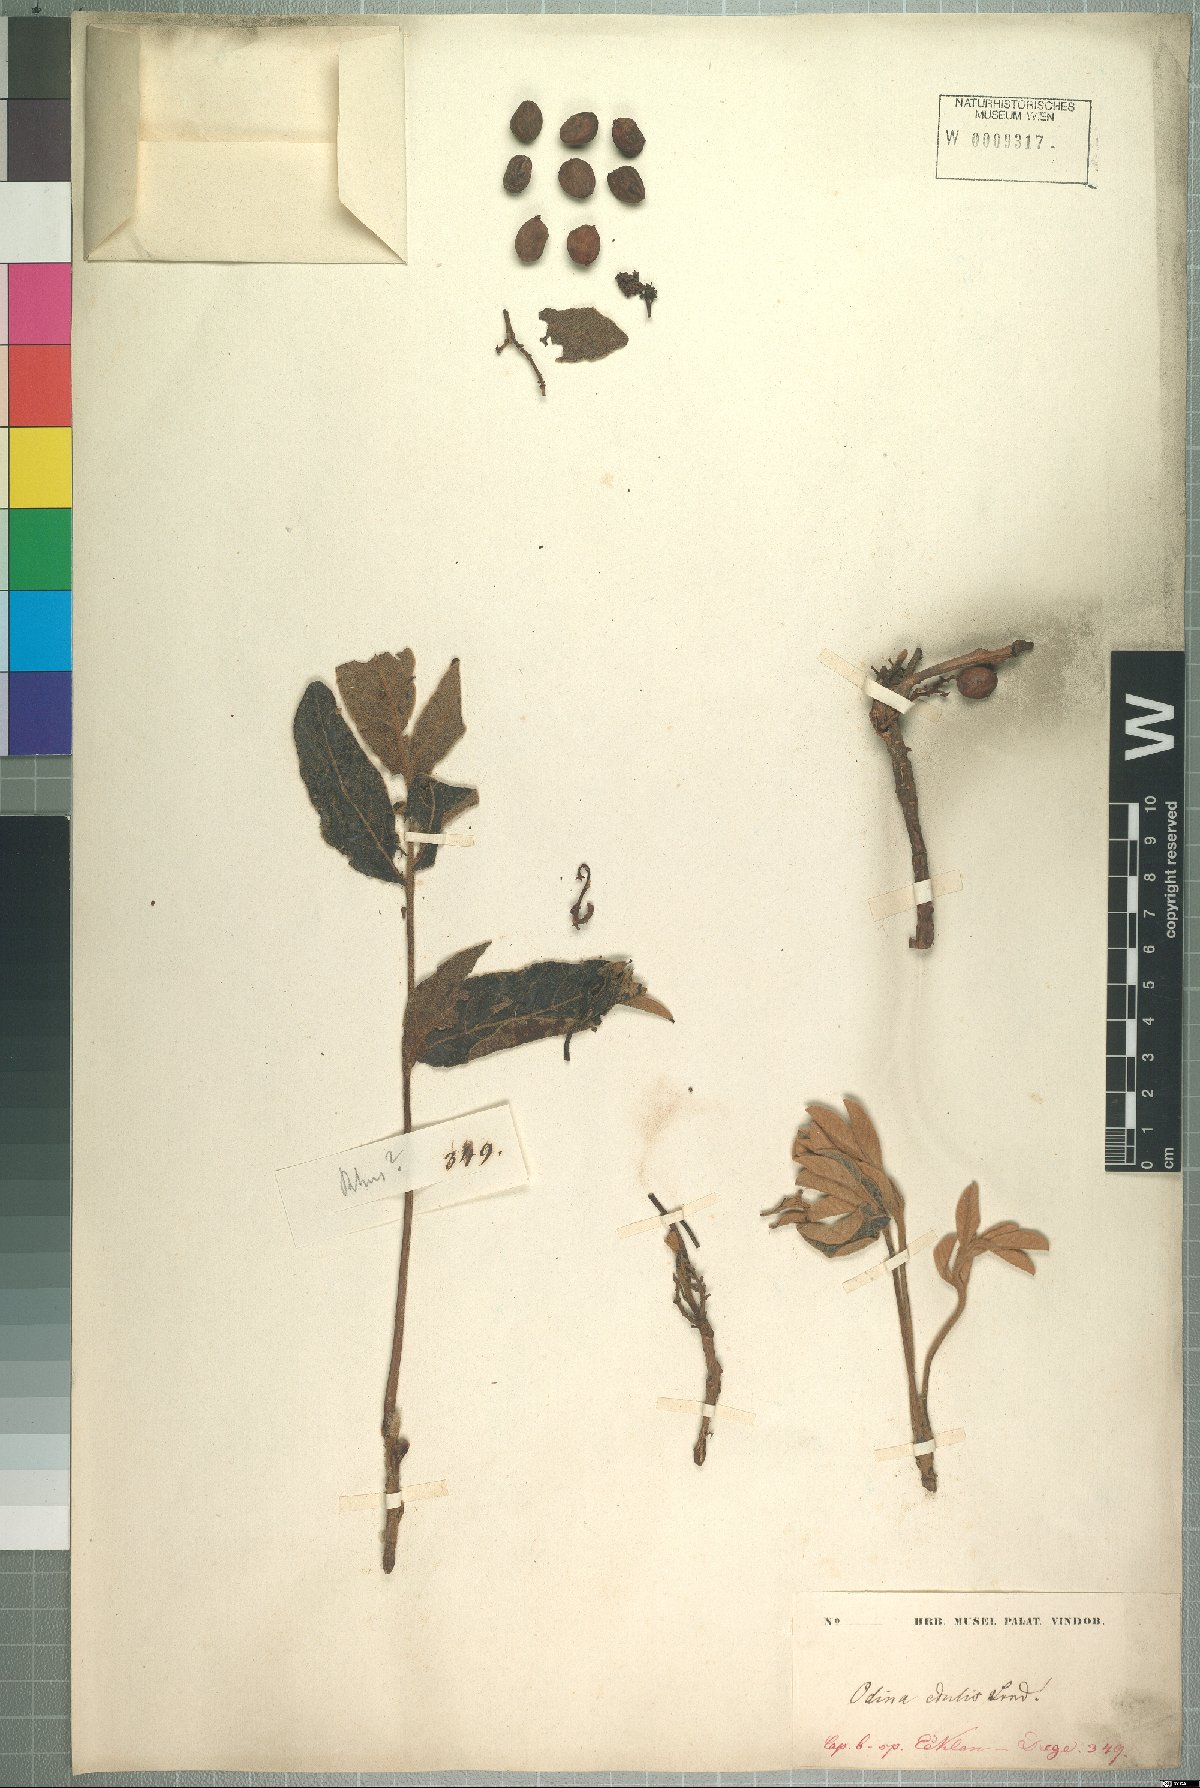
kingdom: Plantae
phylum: Tracheophyta
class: Magnoliopsida
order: Sapindales
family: Anacardiaceae
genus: Lannea
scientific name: Lannea edulis
